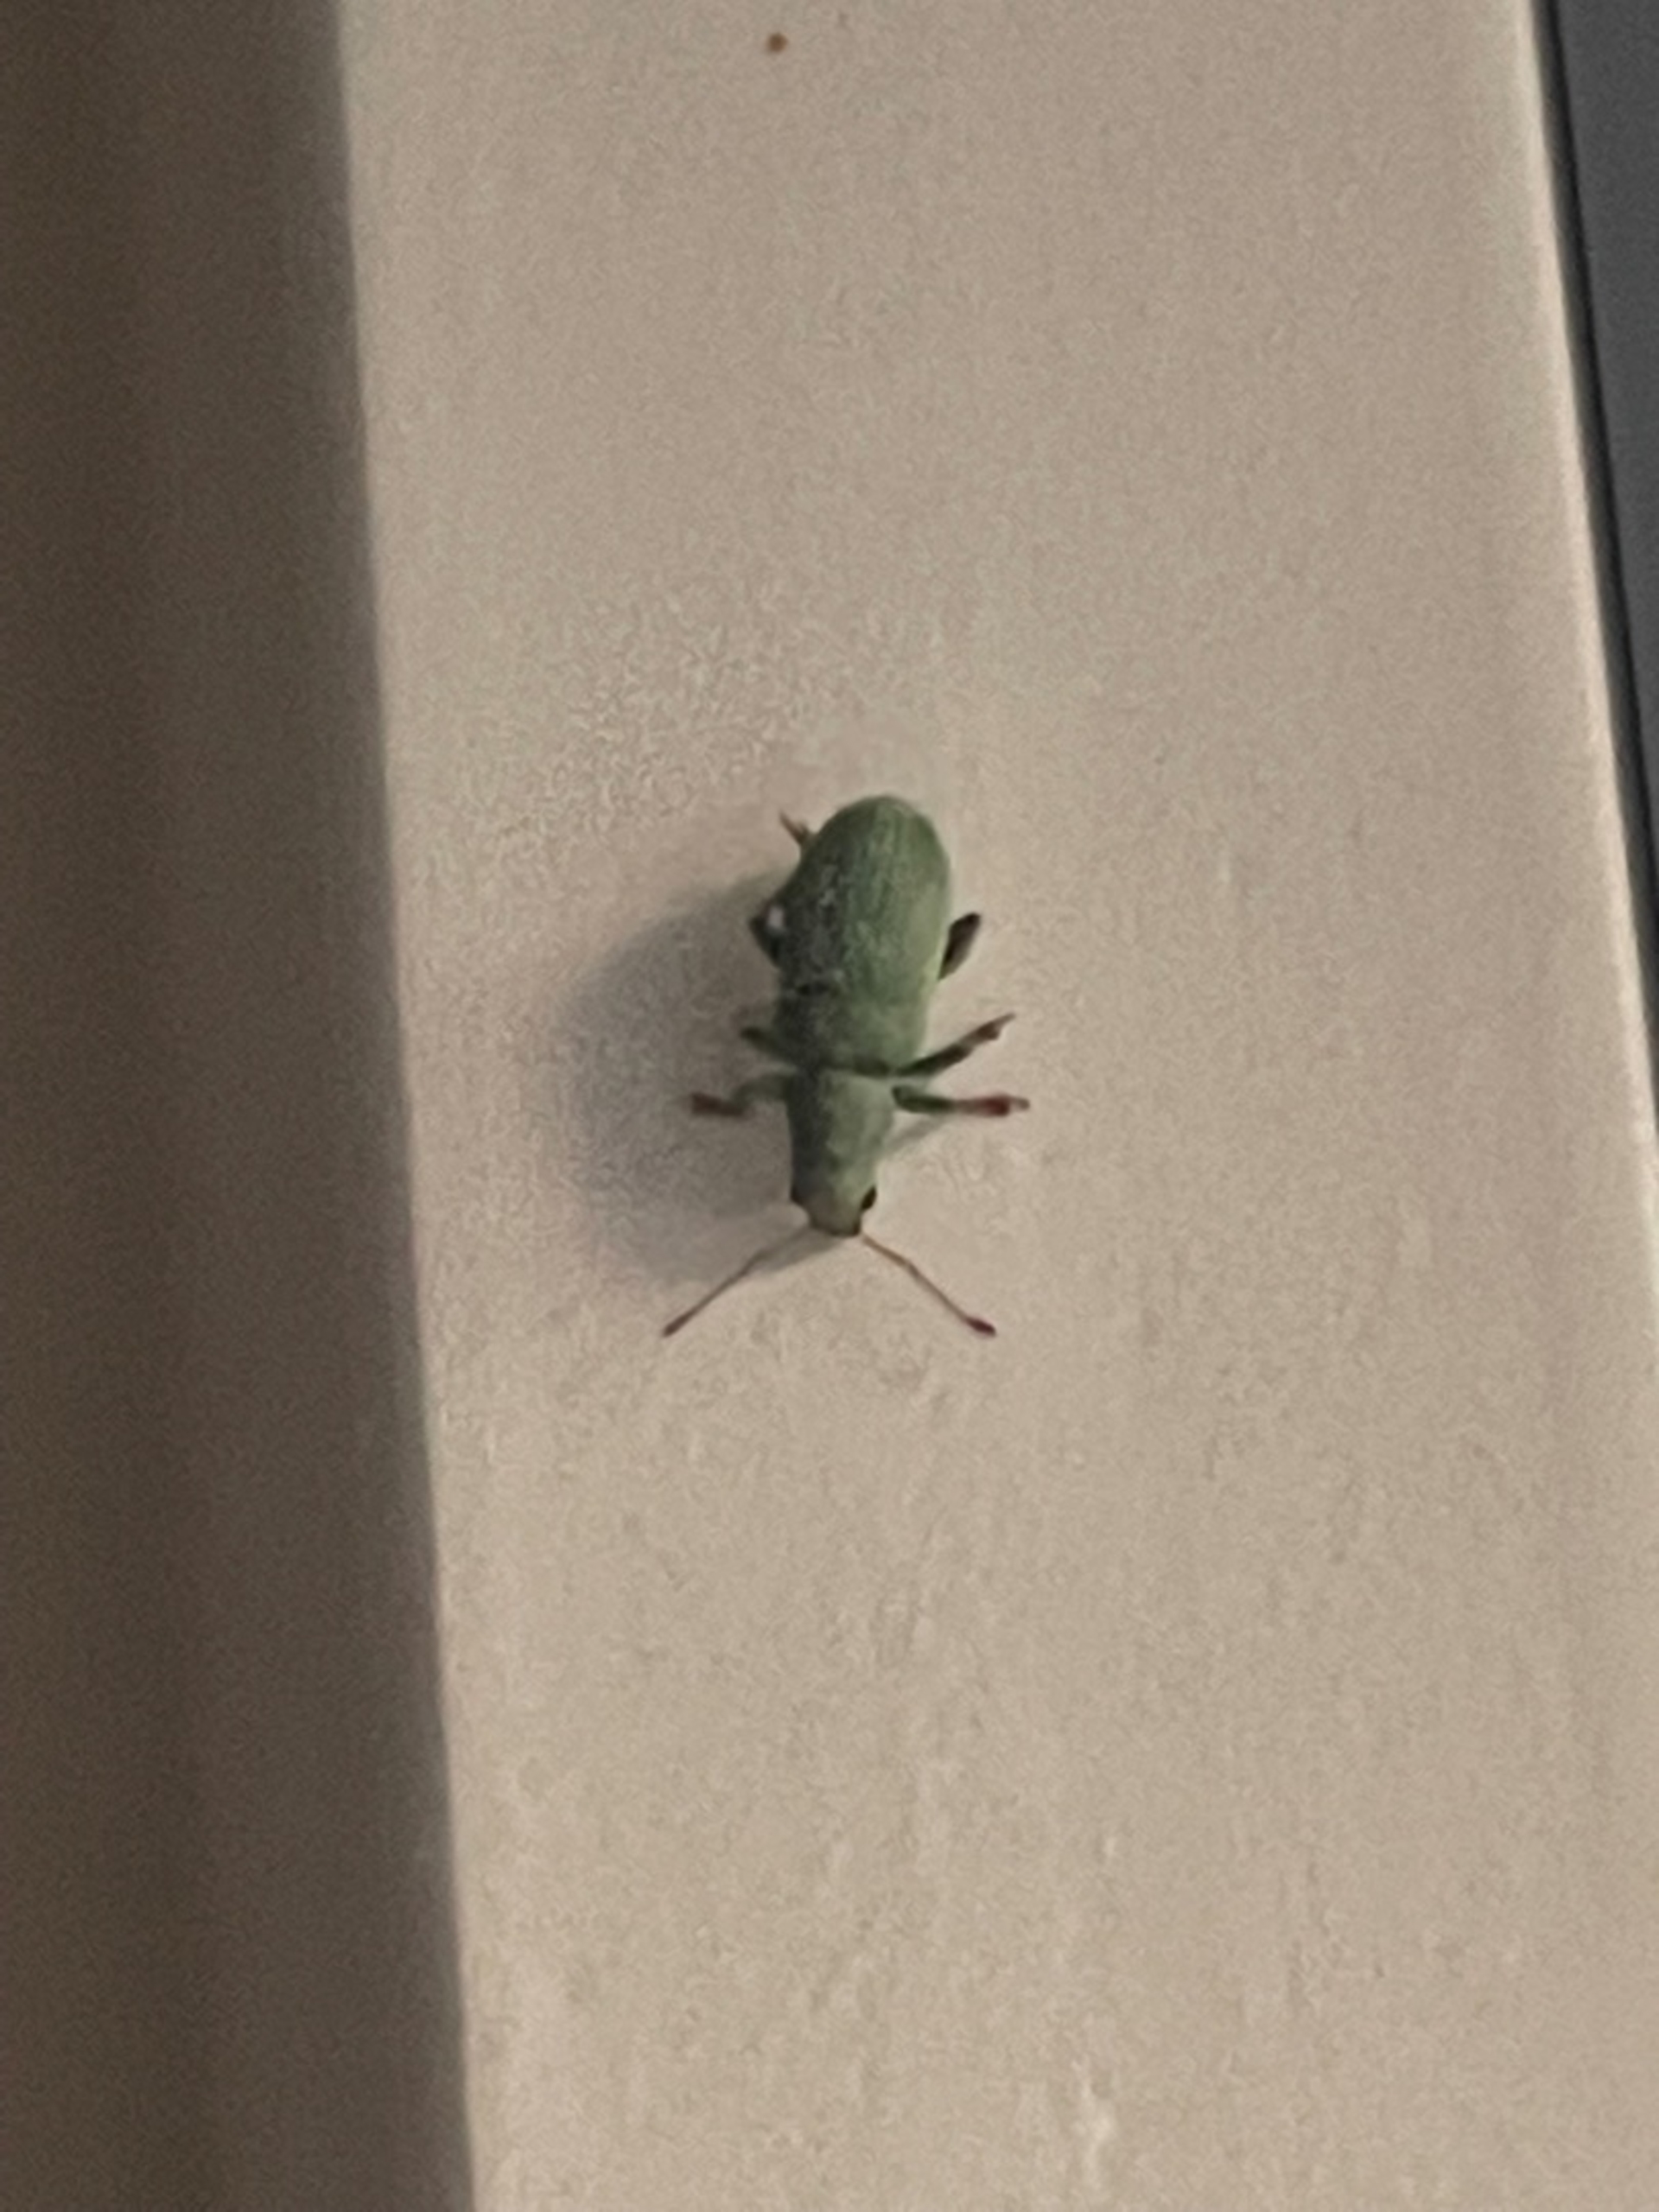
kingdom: Animalia
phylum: Arthropoda
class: Insecta
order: Coleoptera
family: Curculionidae
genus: Pachyrhinus
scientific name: Pachyrhinus lethierryi
